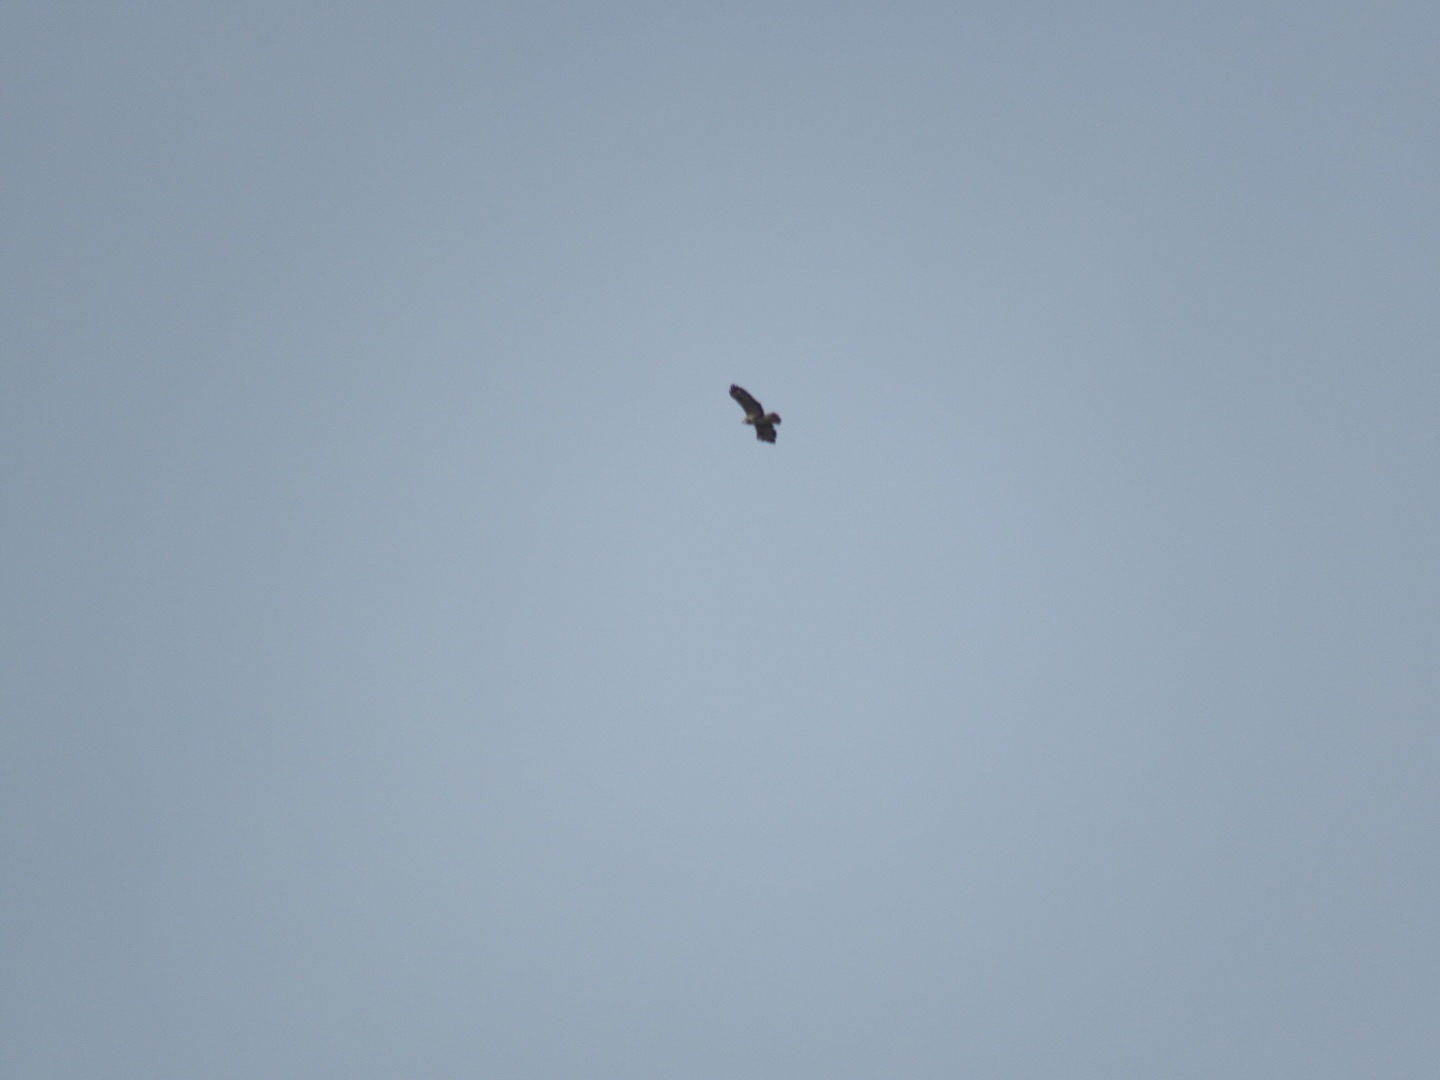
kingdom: Animalia
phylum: Chordata
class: Aves
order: Accipitriformes
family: Accipitridae
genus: Buteo
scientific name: Buteo buteo
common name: Musvåge
